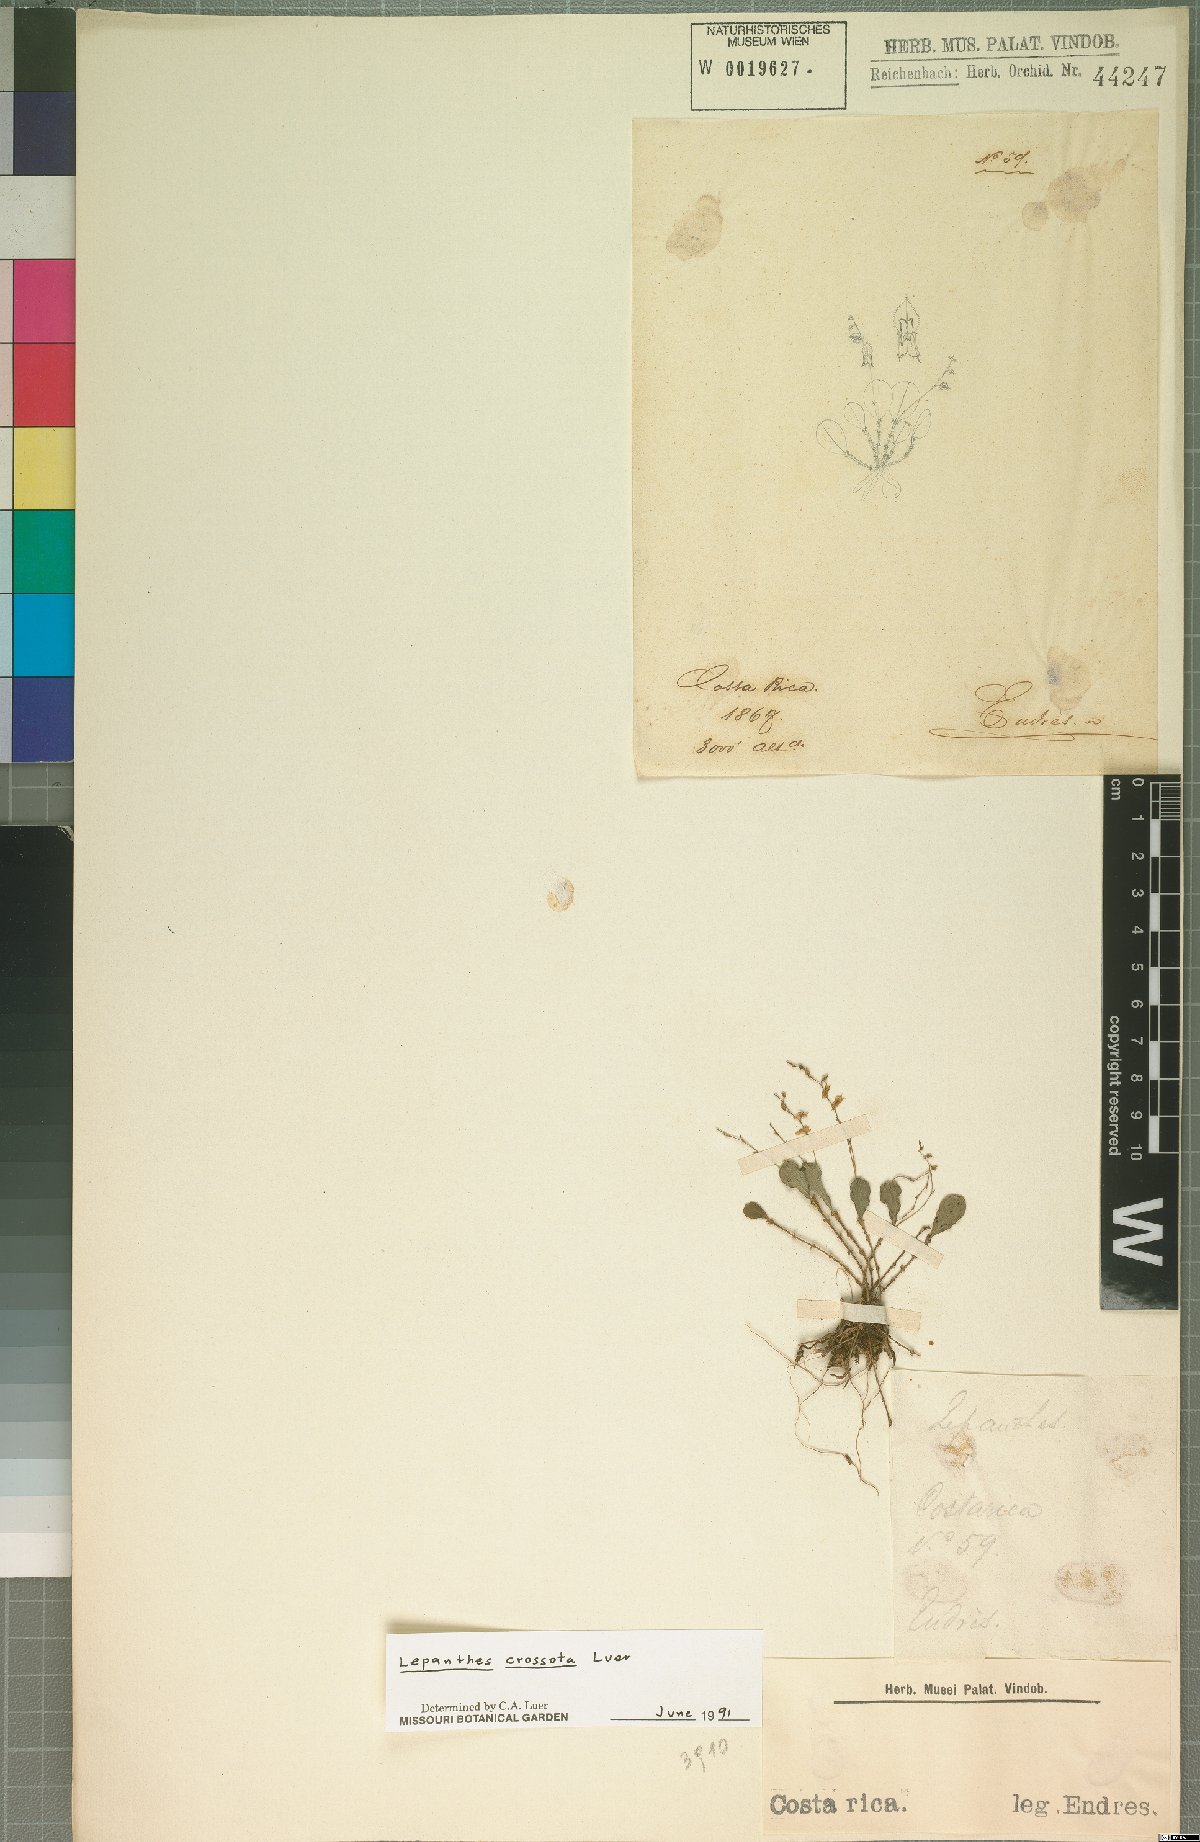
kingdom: Plantae
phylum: Tracheophyta
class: Liliopsida
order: Asparagales
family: Orchidaceae
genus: Lepanthes
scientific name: Lepanthes jimenezii
